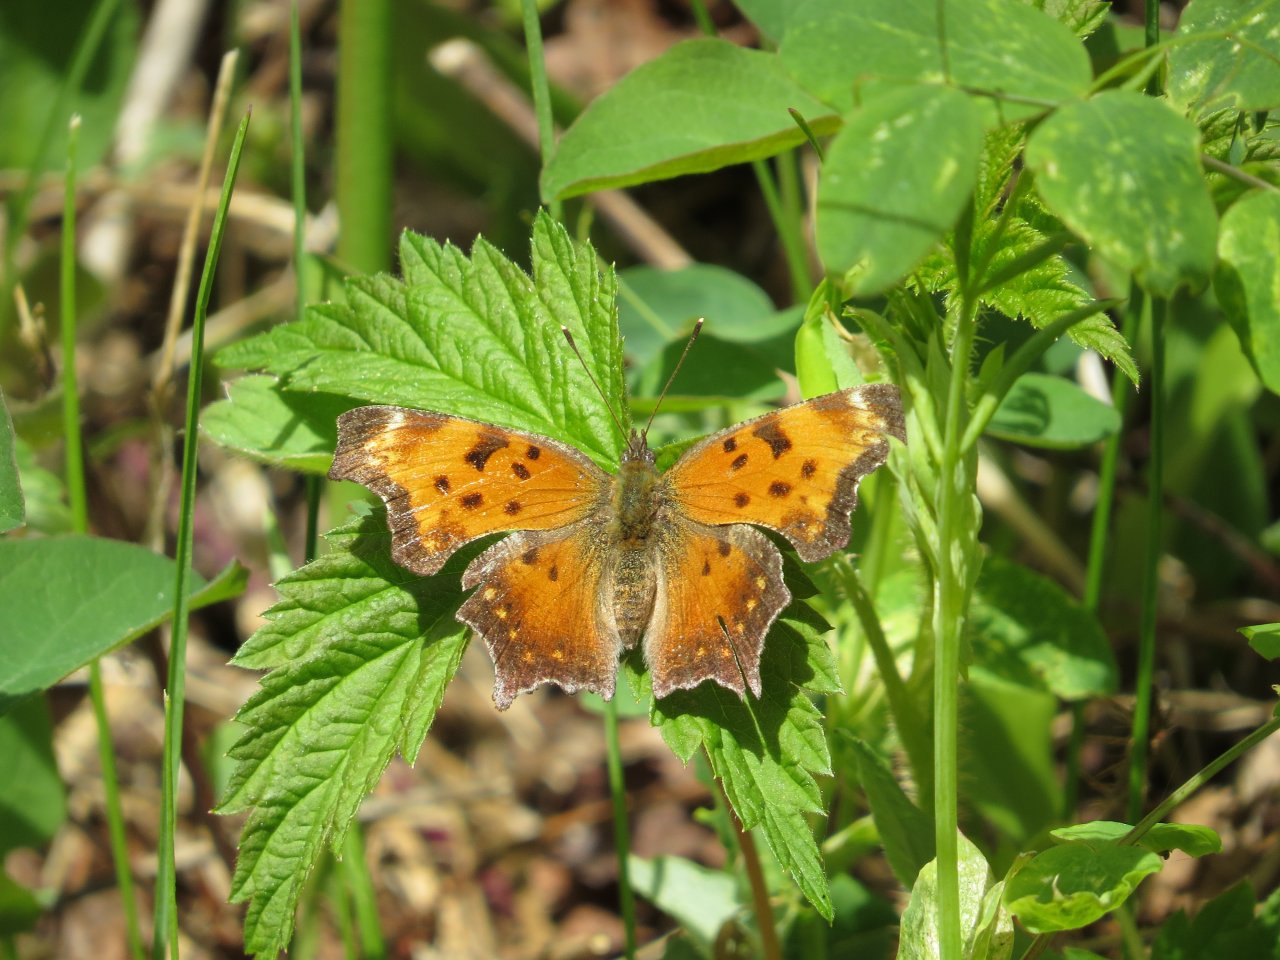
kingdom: Animalia
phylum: Arthropoda
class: Insecta
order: Lepidoptera
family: Nymphalidae
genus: Polygonia
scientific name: Polygonia progne
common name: Gray Comma
